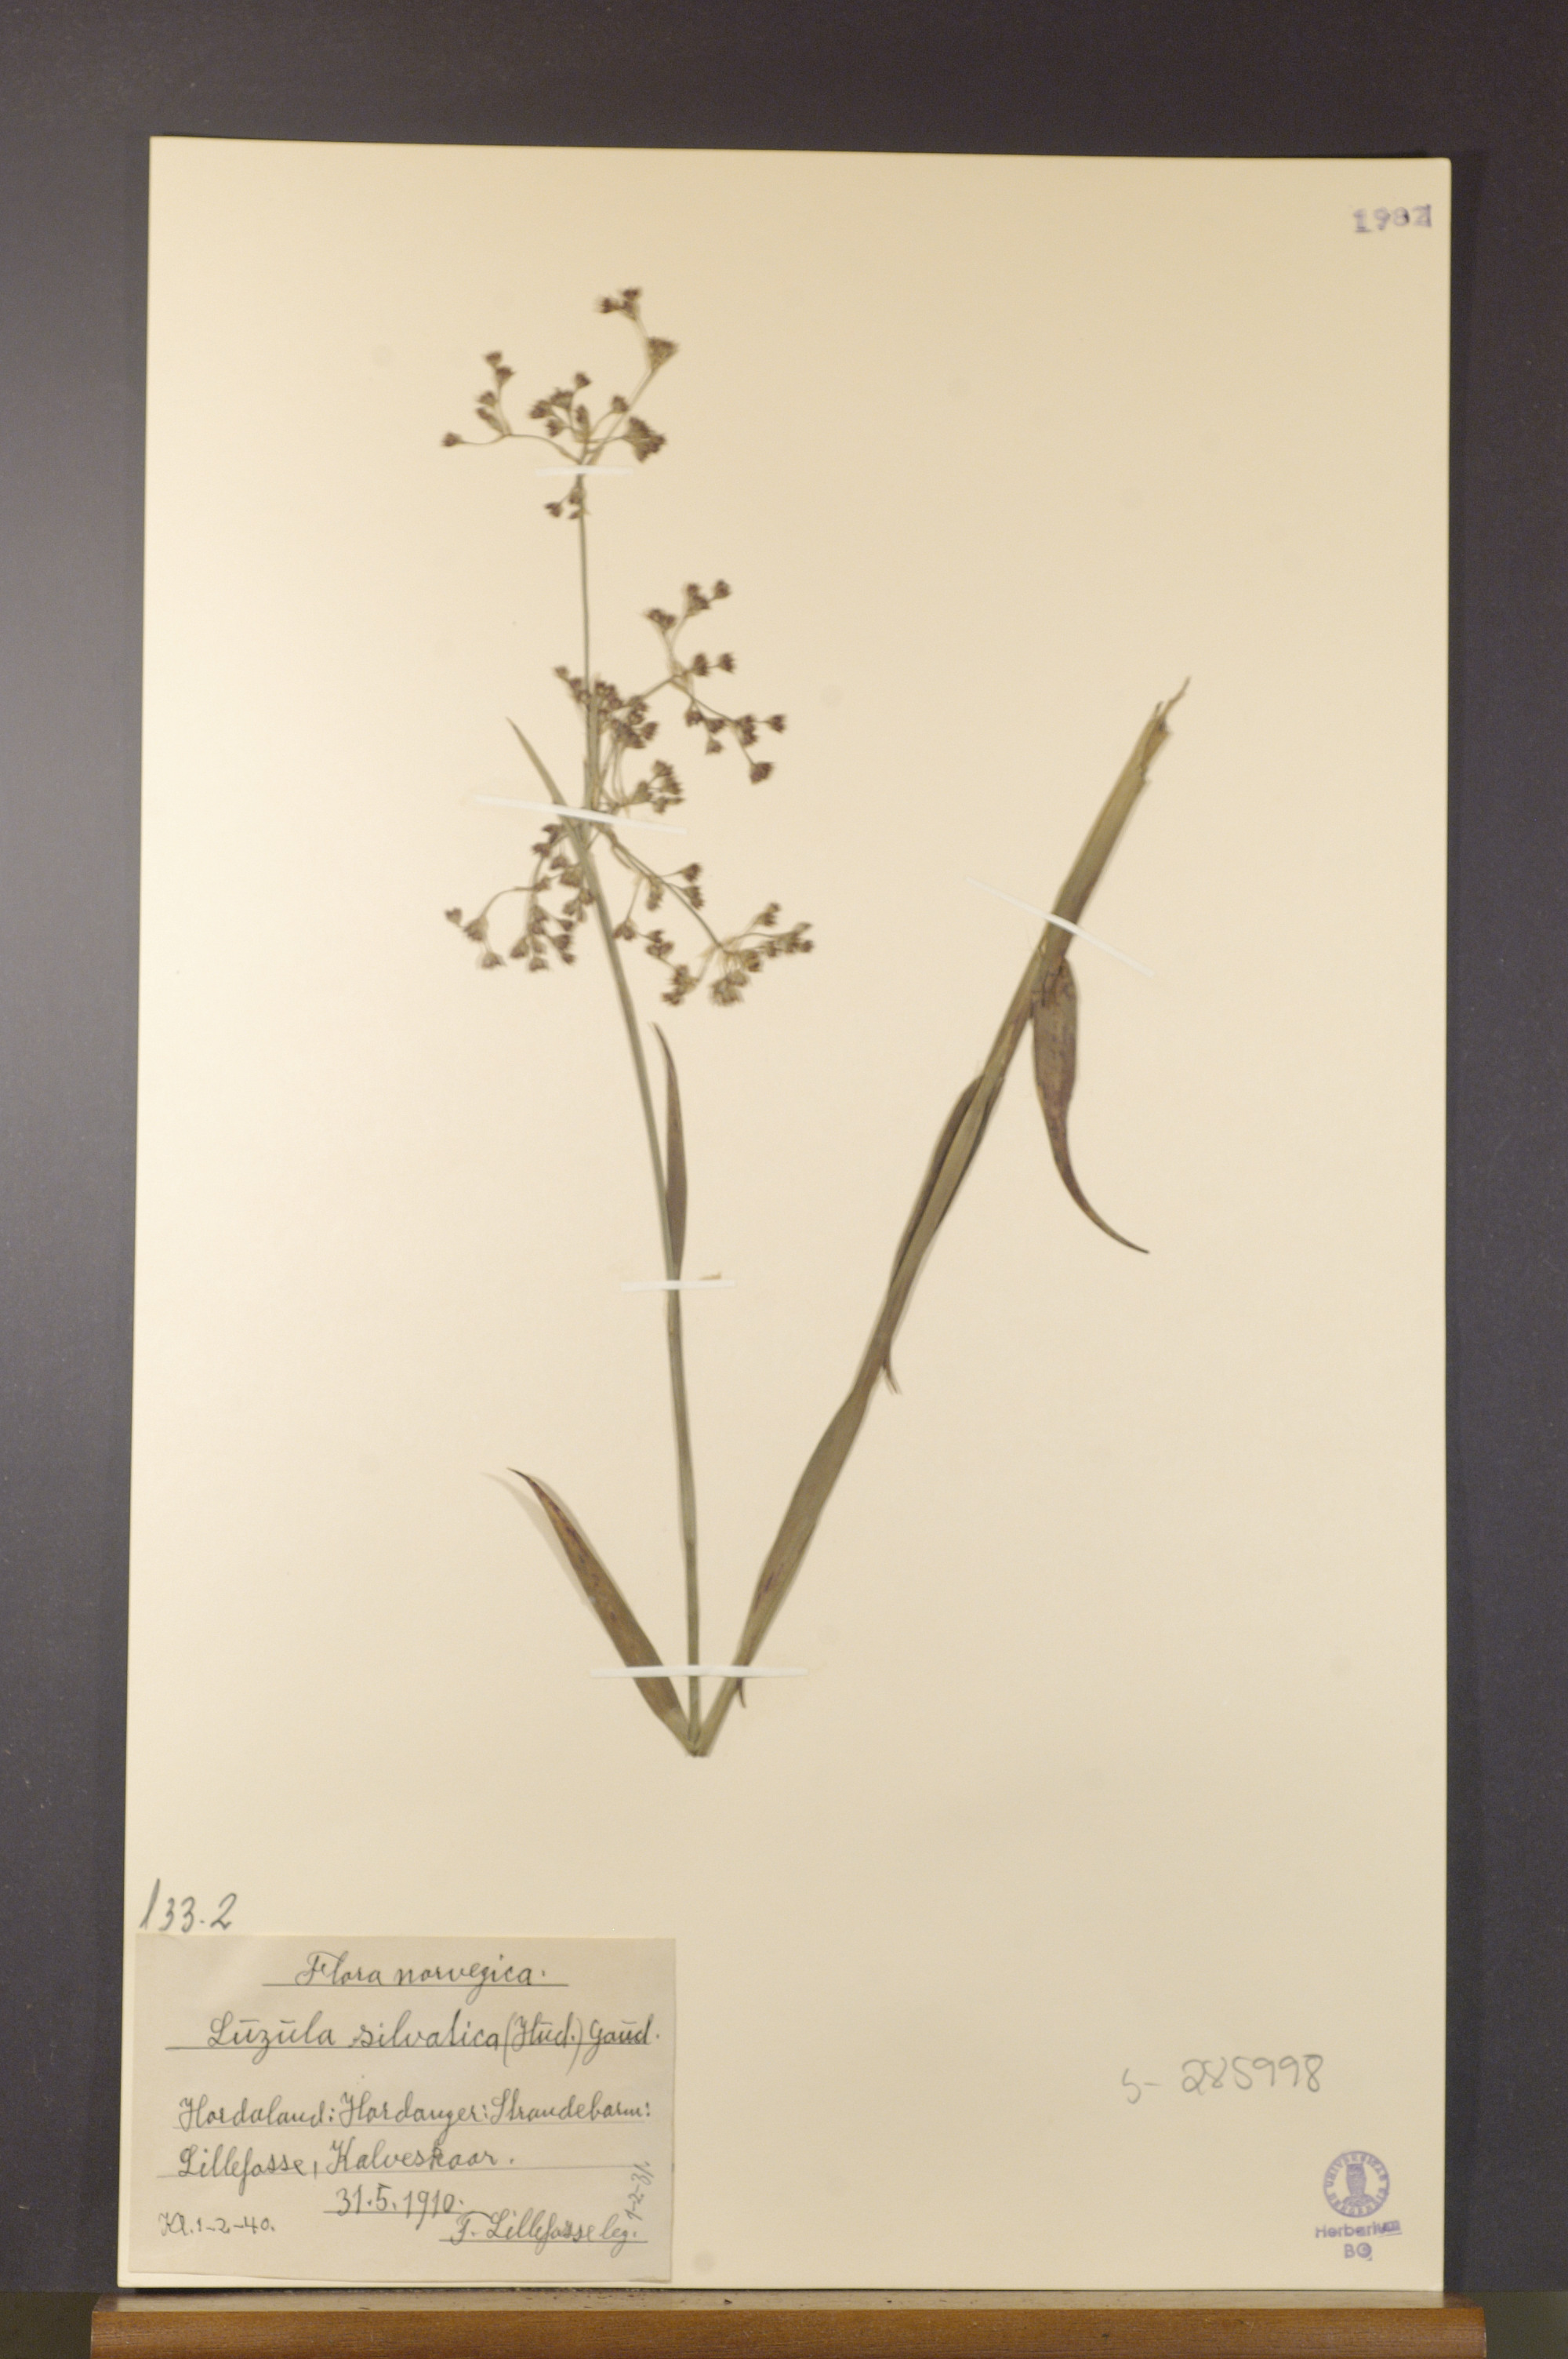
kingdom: Plantae
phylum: Tracheophyta
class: Liliopsida
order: Poales
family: Juncaceae
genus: Luzula
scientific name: Luzula sylvatica
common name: Great wood-rush
